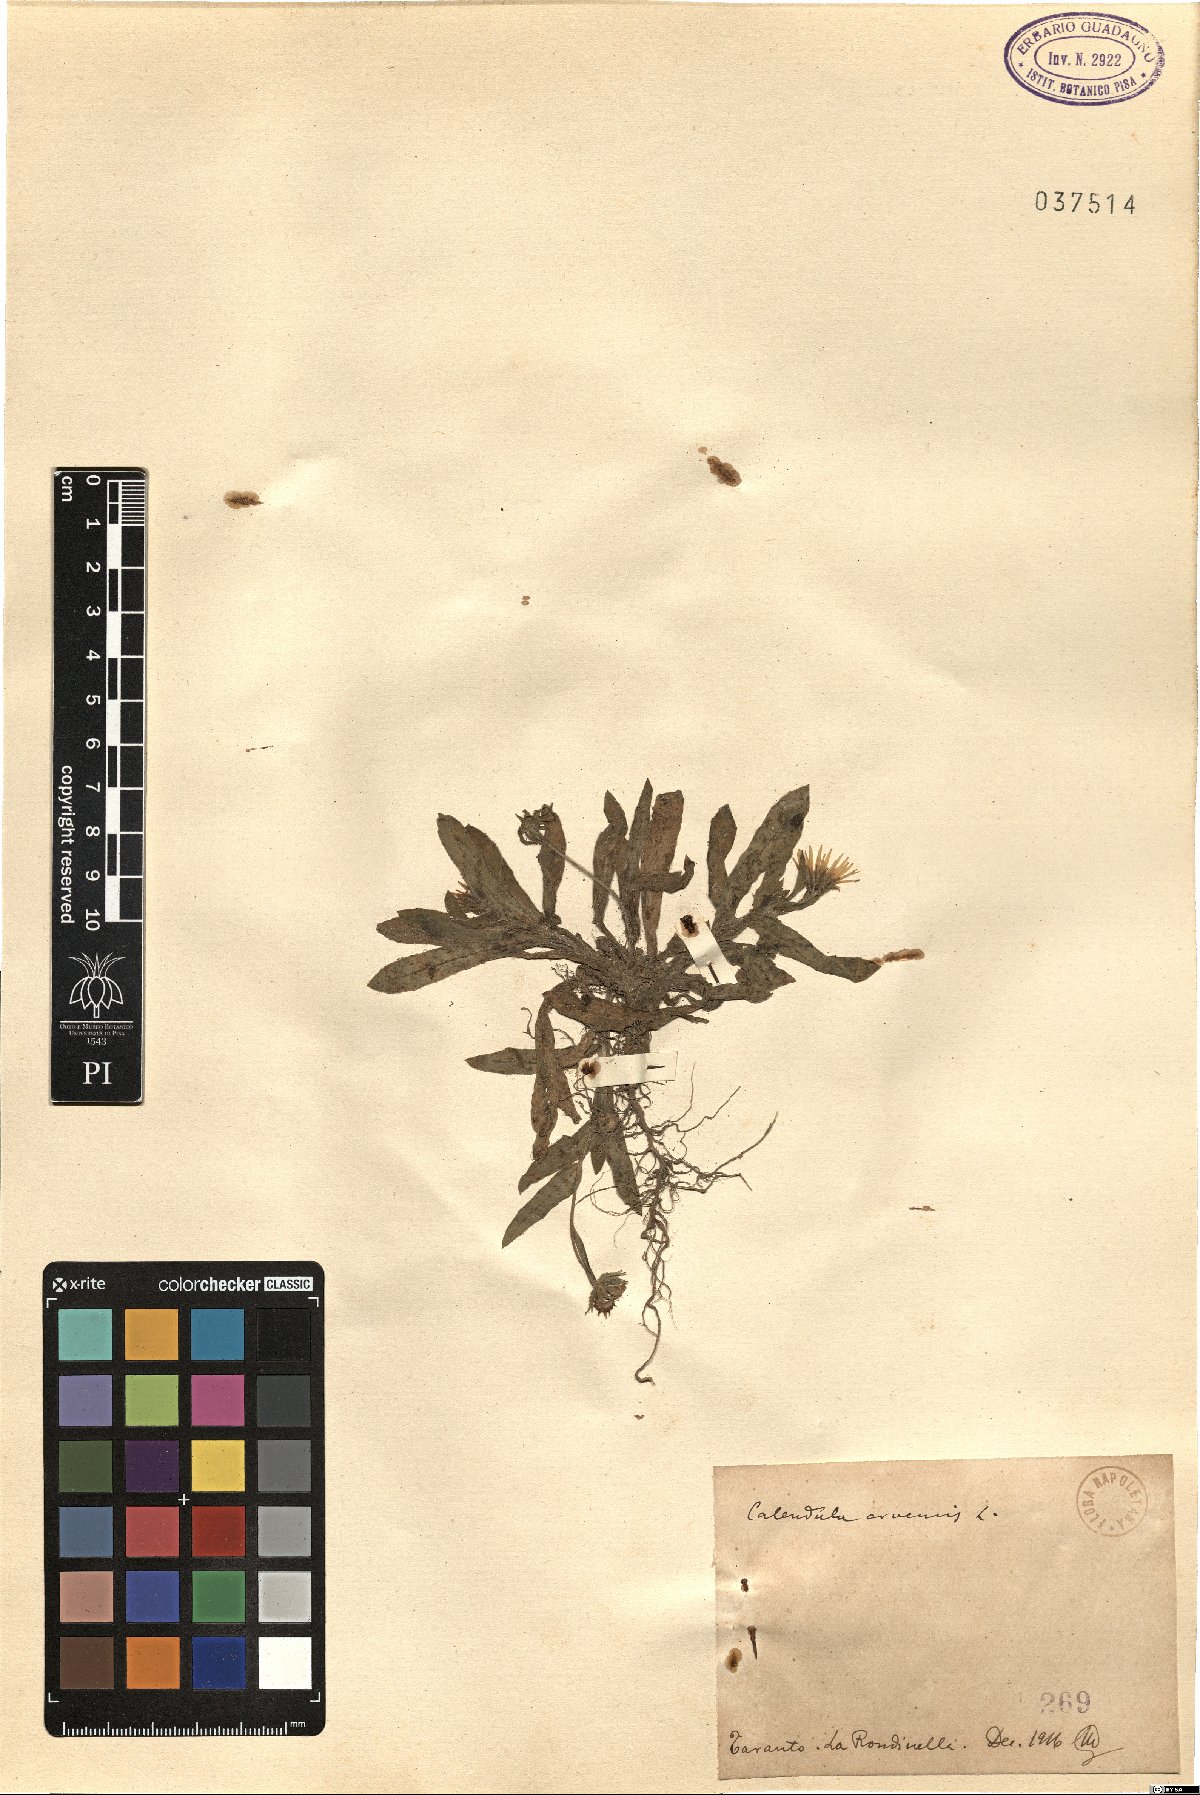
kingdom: Plantae
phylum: Tracheophyta
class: Magnoliopsida
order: Asterales
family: Asteraceae
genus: Calendula
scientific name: Calendula arvensis
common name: Field marigold
